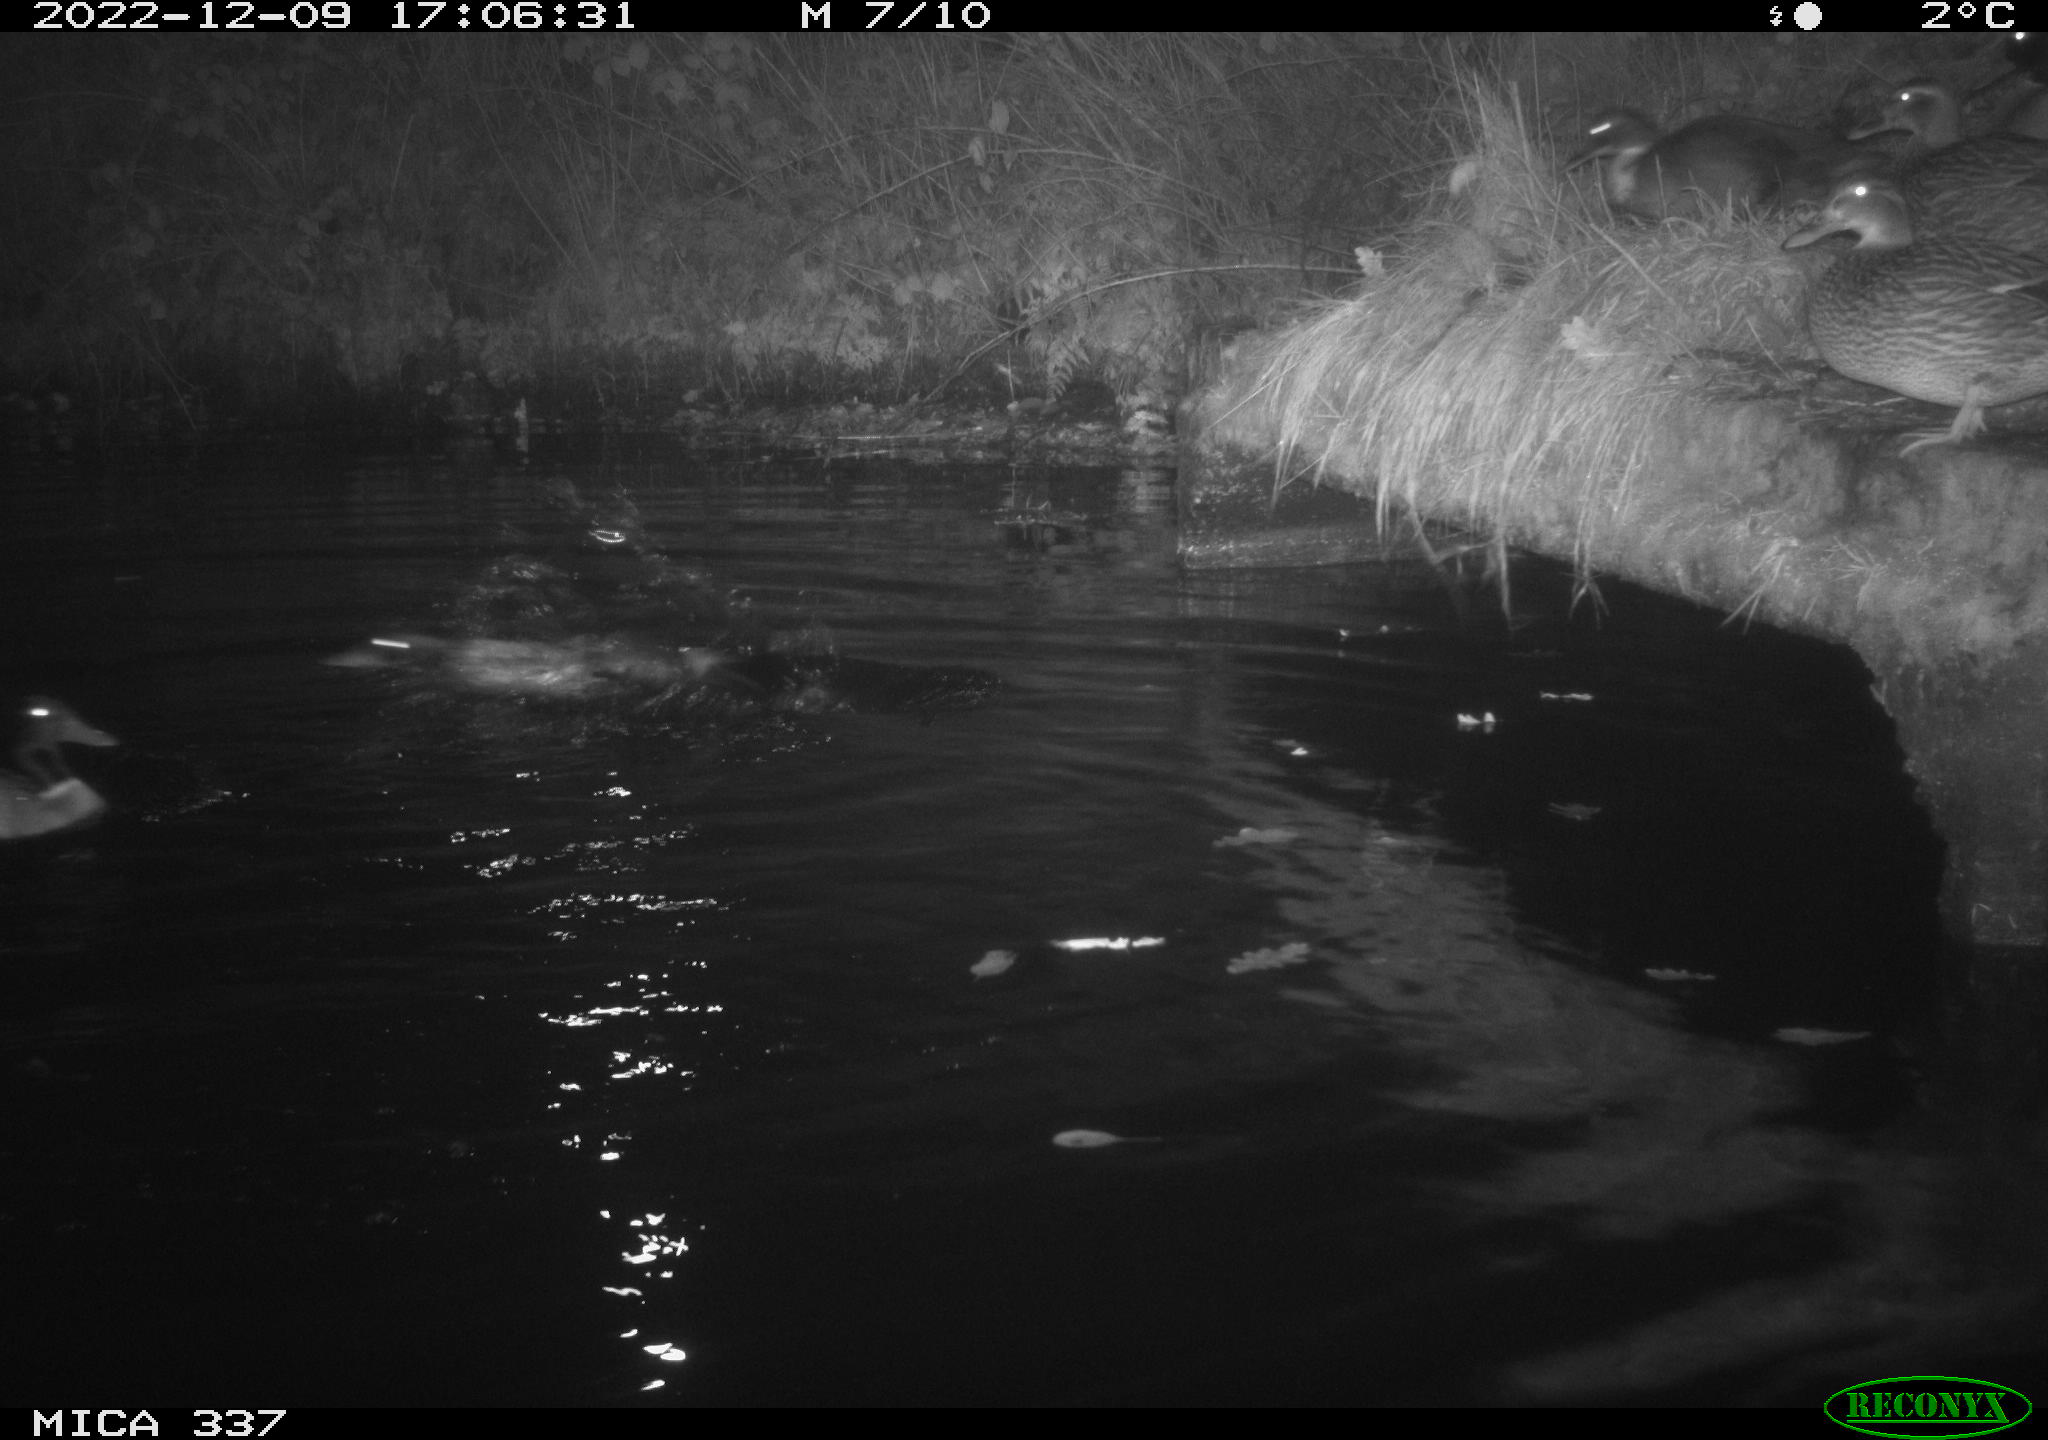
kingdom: Animalia
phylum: Chordata
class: Aves
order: Anseriformes
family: Anatidae
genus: Anas
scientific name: Anas
